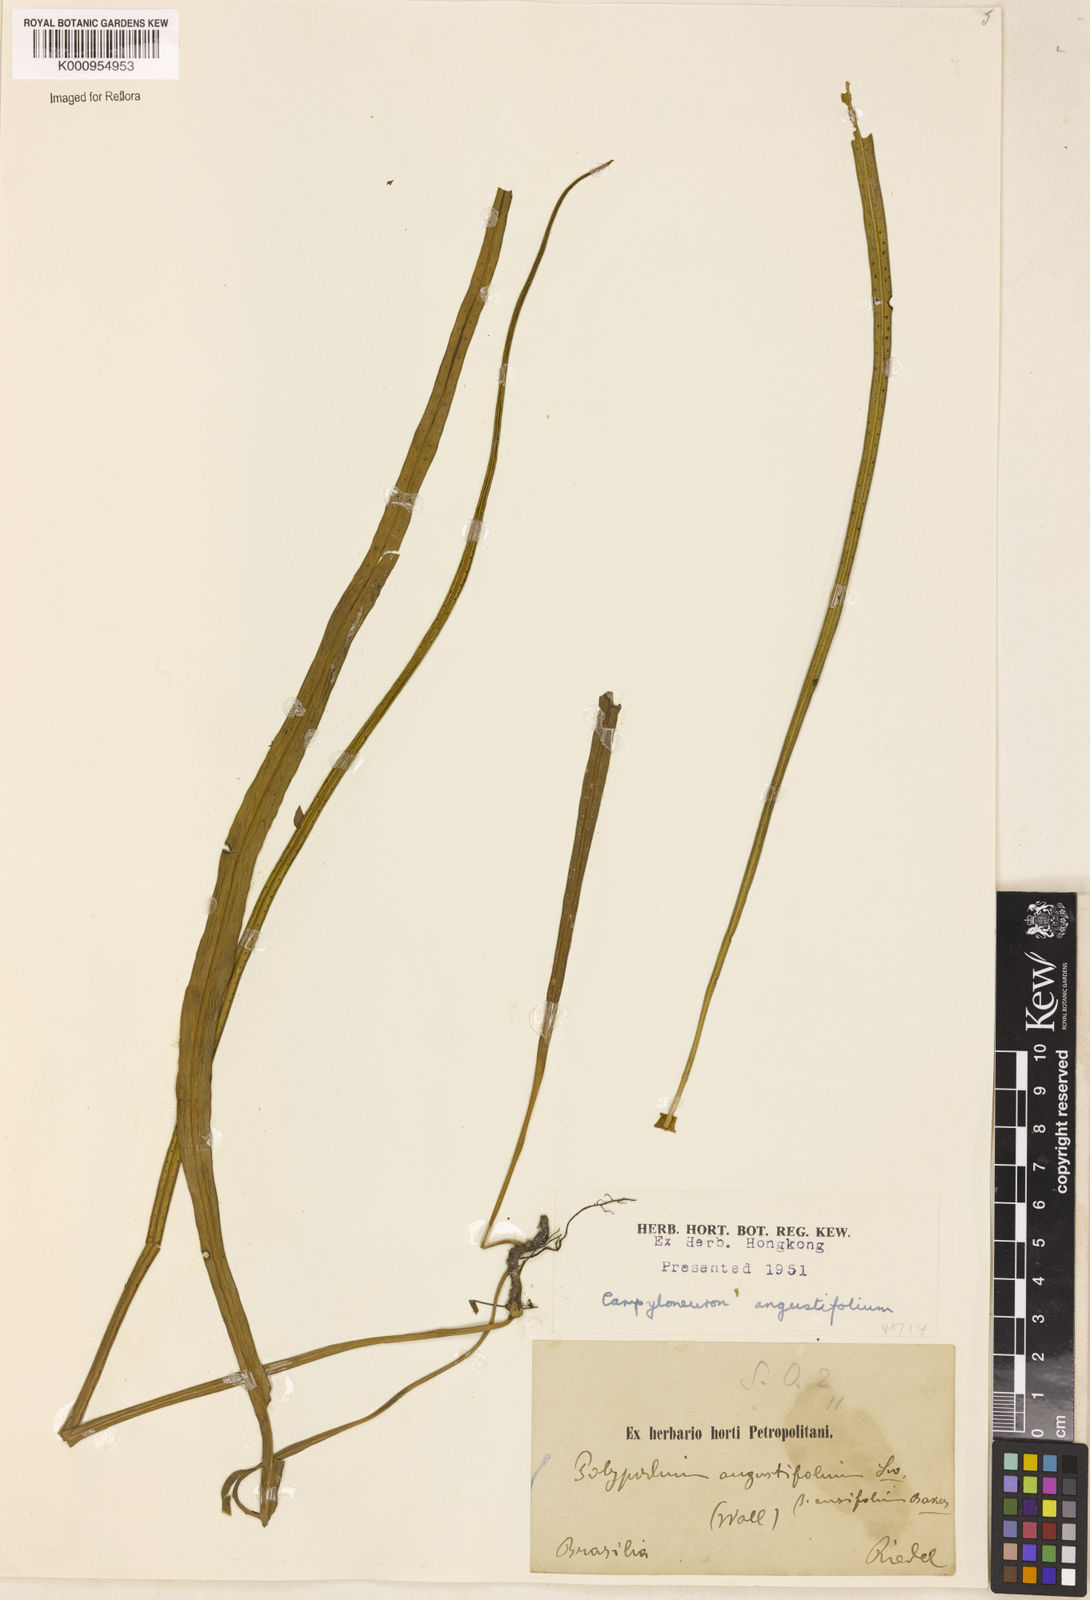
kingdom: Plantae
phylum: Tracheophyta
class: Polypodiopsida
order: Polypodiales
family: Polypodiaceae
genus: Campyloneurum
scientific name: Campyloneurum
